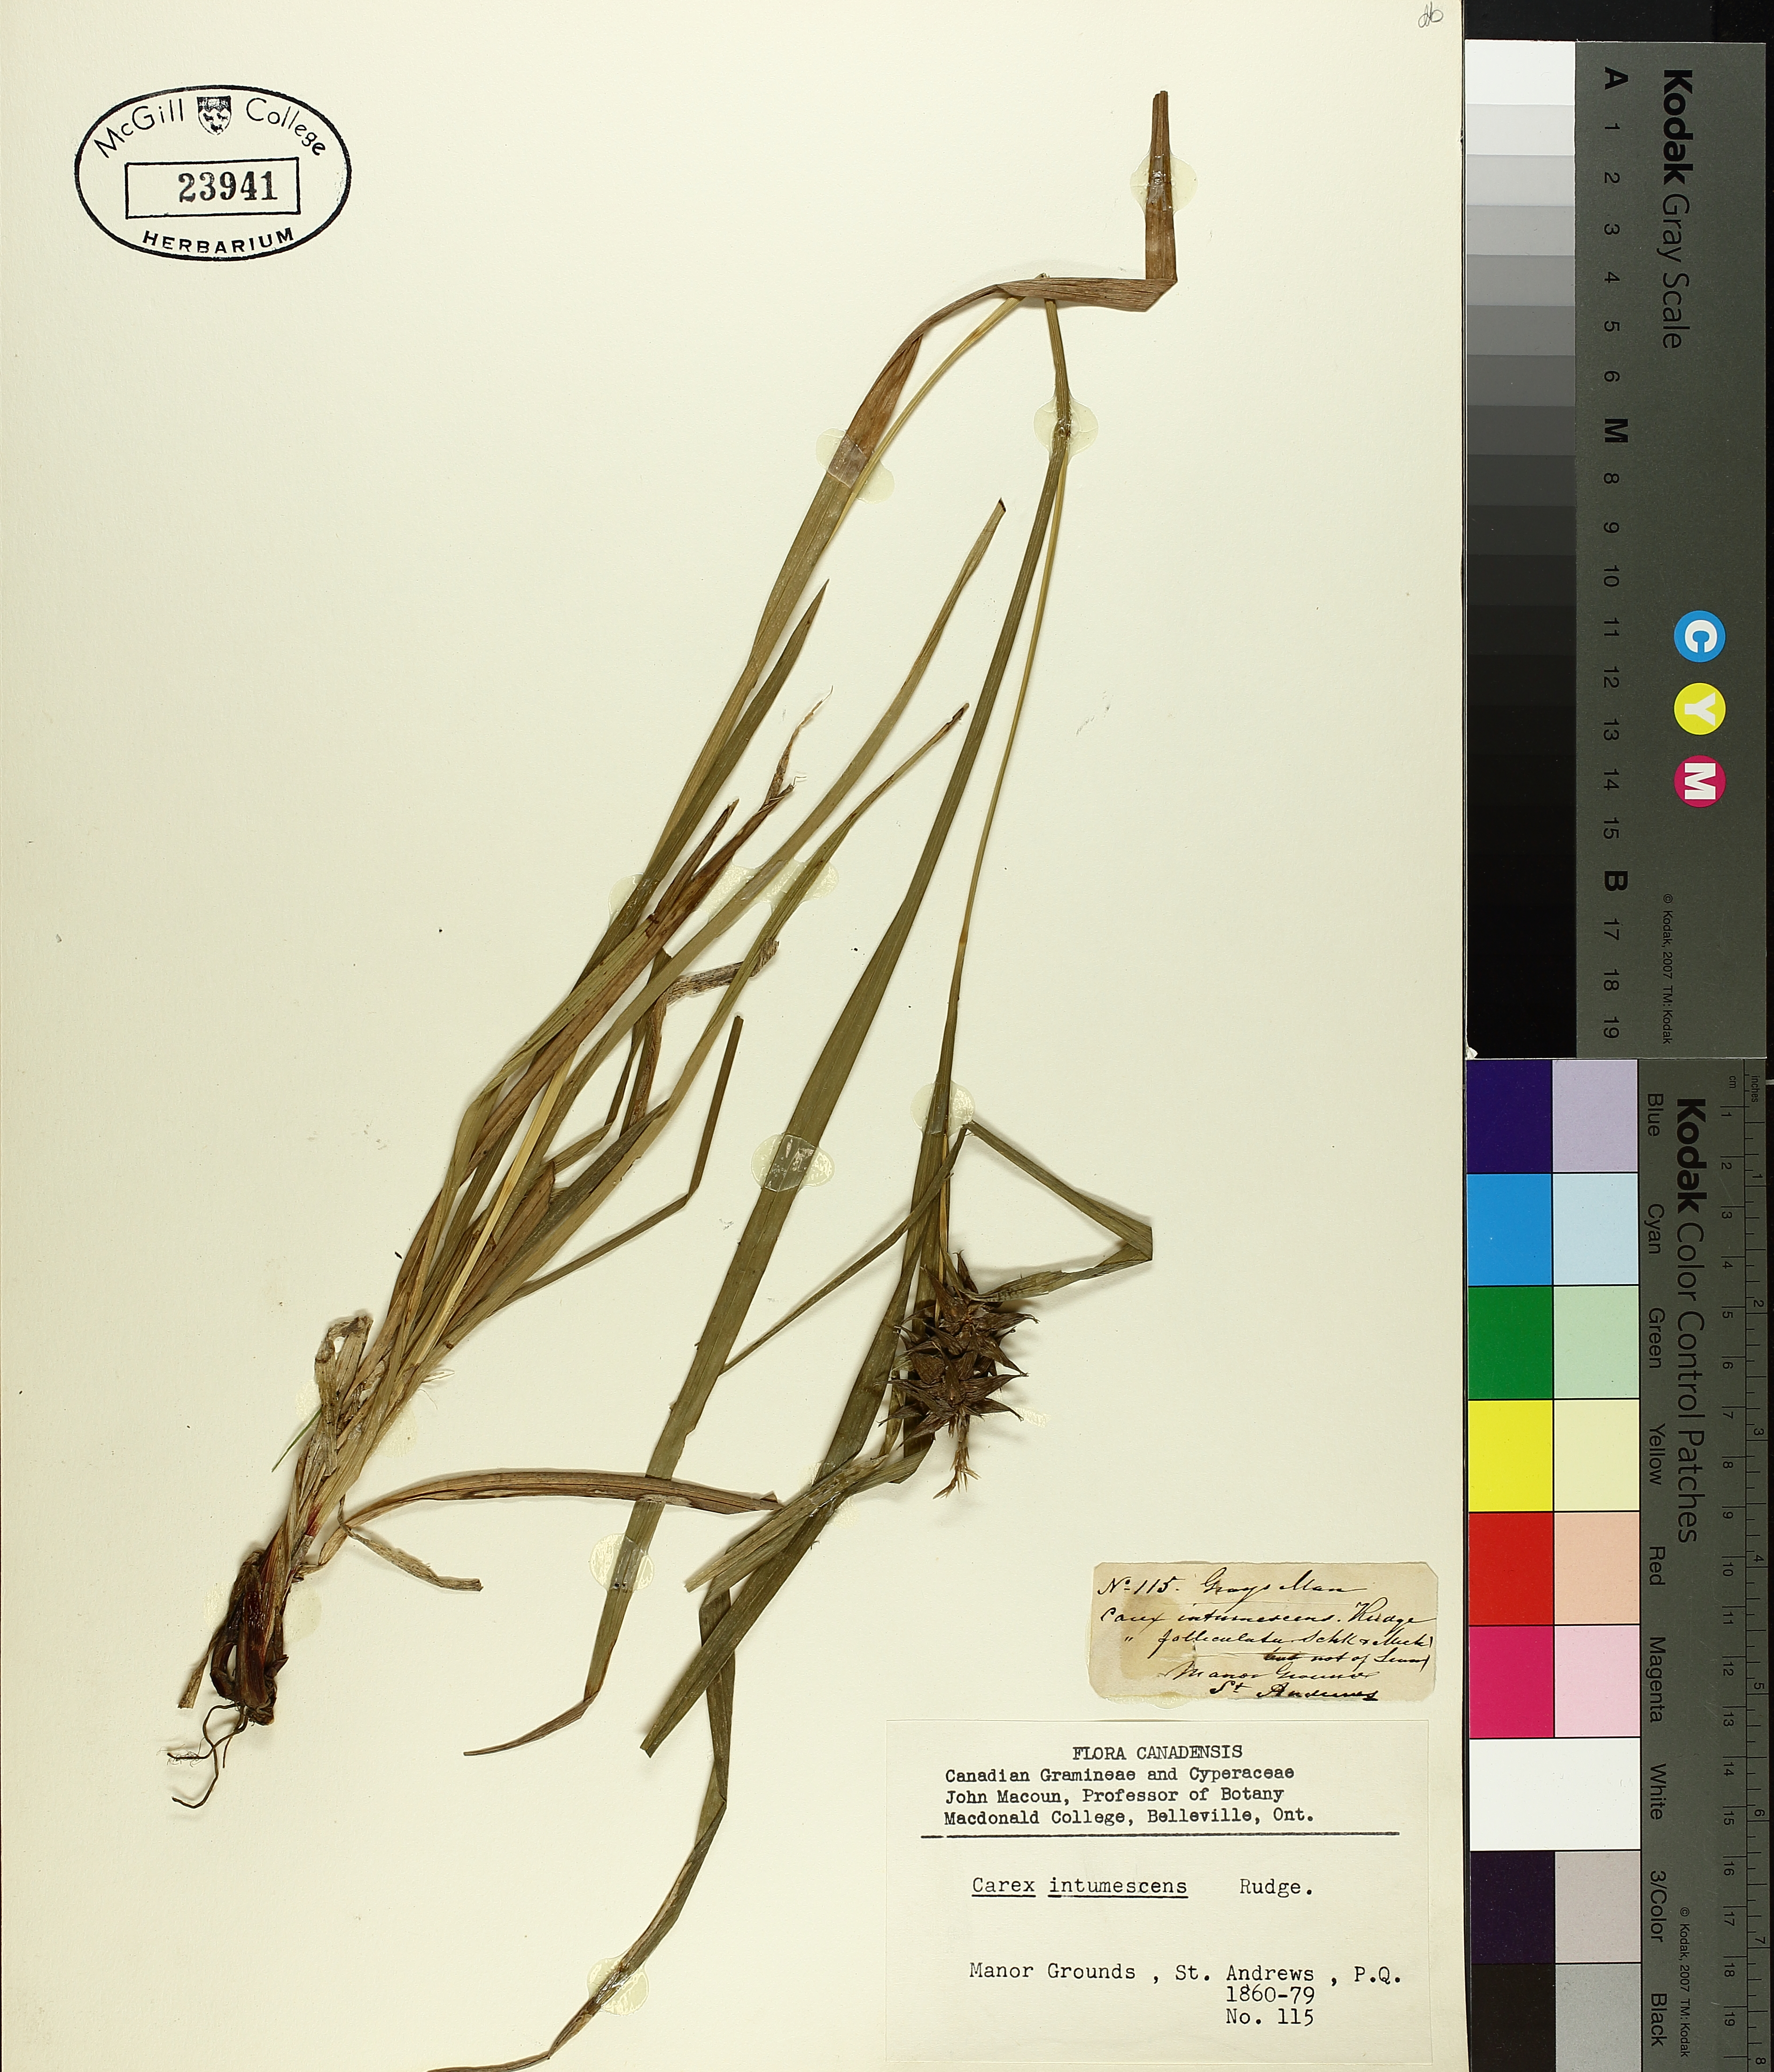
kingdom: Plantae
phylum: Tracheophyta
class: Liliopsida
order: Poales
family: Cyperaceae
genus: Carex
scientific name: Carex intumescens
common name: Greater bladder sedge
